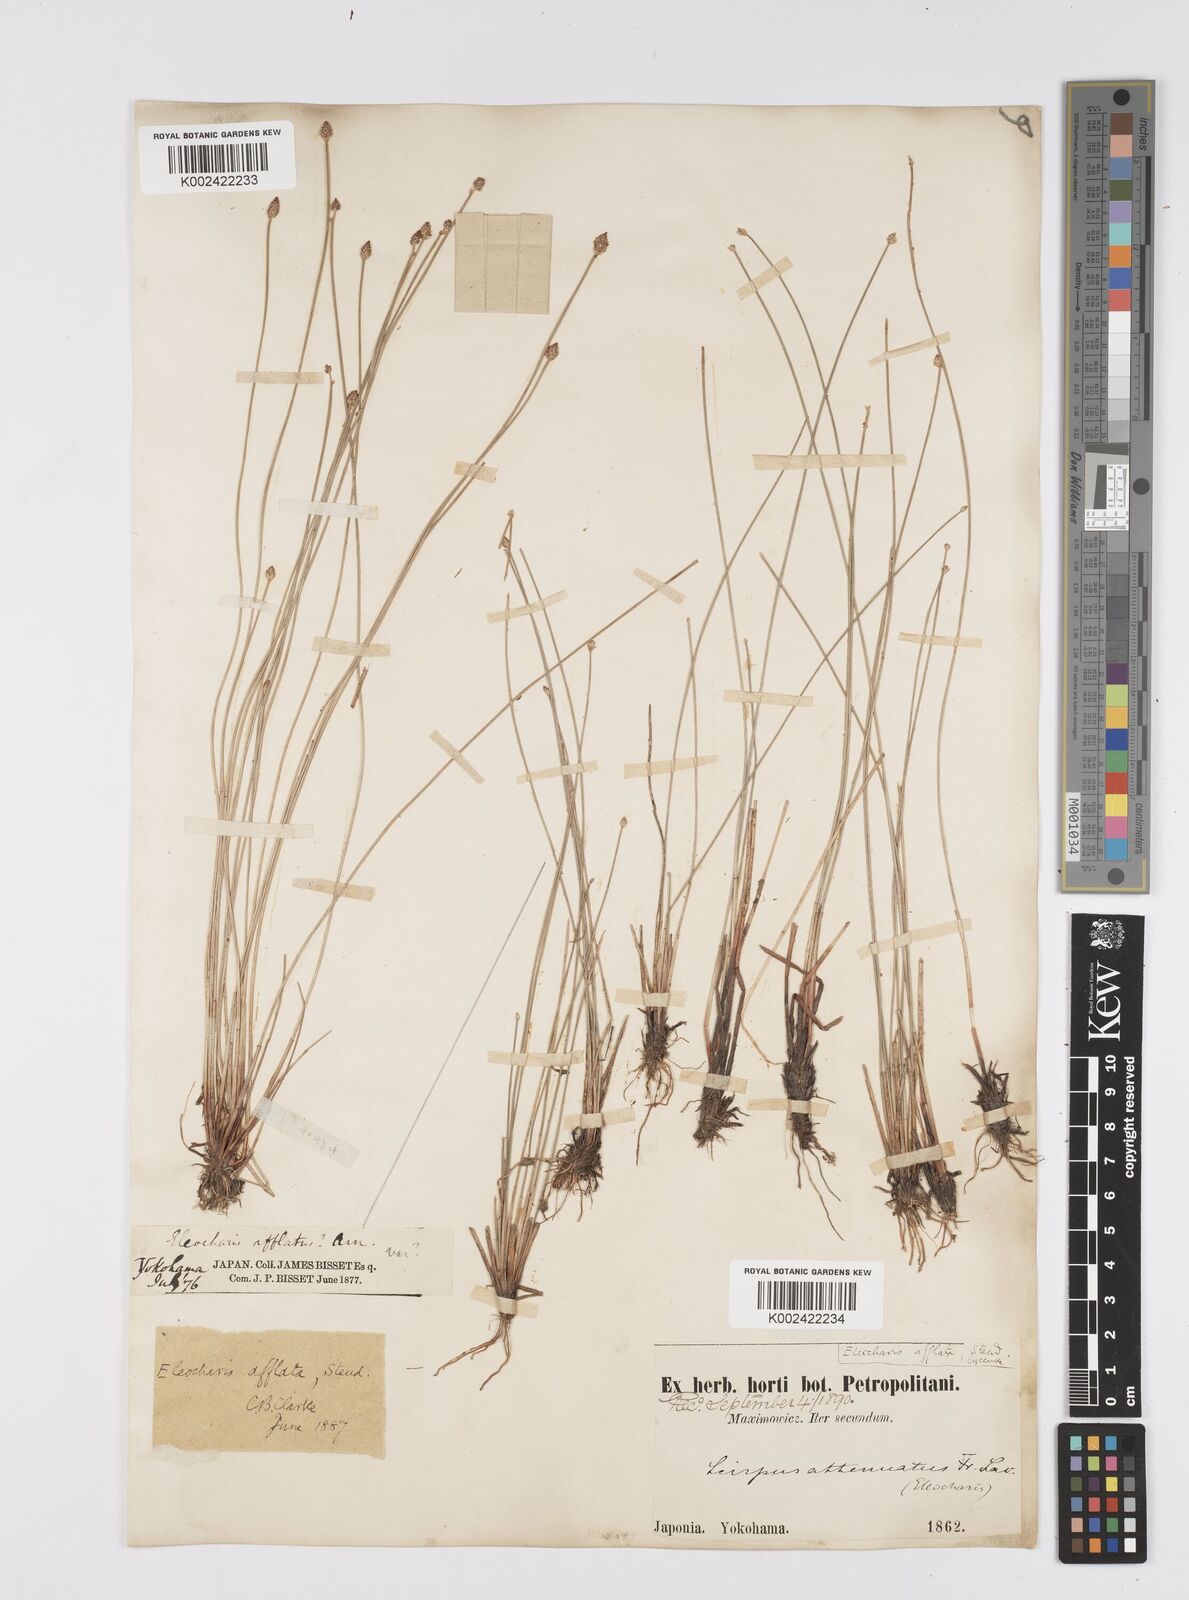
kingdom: Plantae
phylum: Tracheophyta
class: Liliopsida
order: Poales
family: Cyperaceae
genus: Eleocharis
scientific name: Eleocharis pellucida
